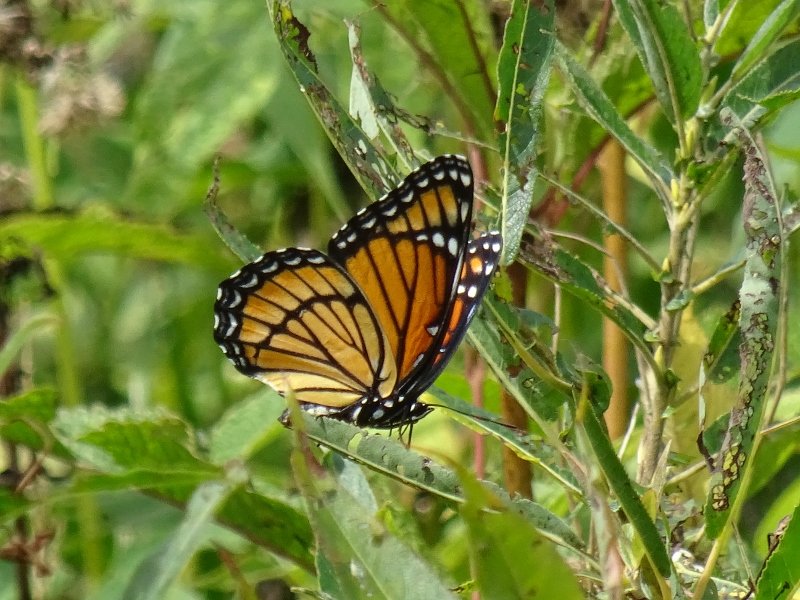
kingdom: Animalia
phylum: Arthropoda
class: Insecta
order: Lepidoptera
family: Nymphalidae
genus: Limenitis
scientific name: Limenitis archippus
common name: Viceroy
